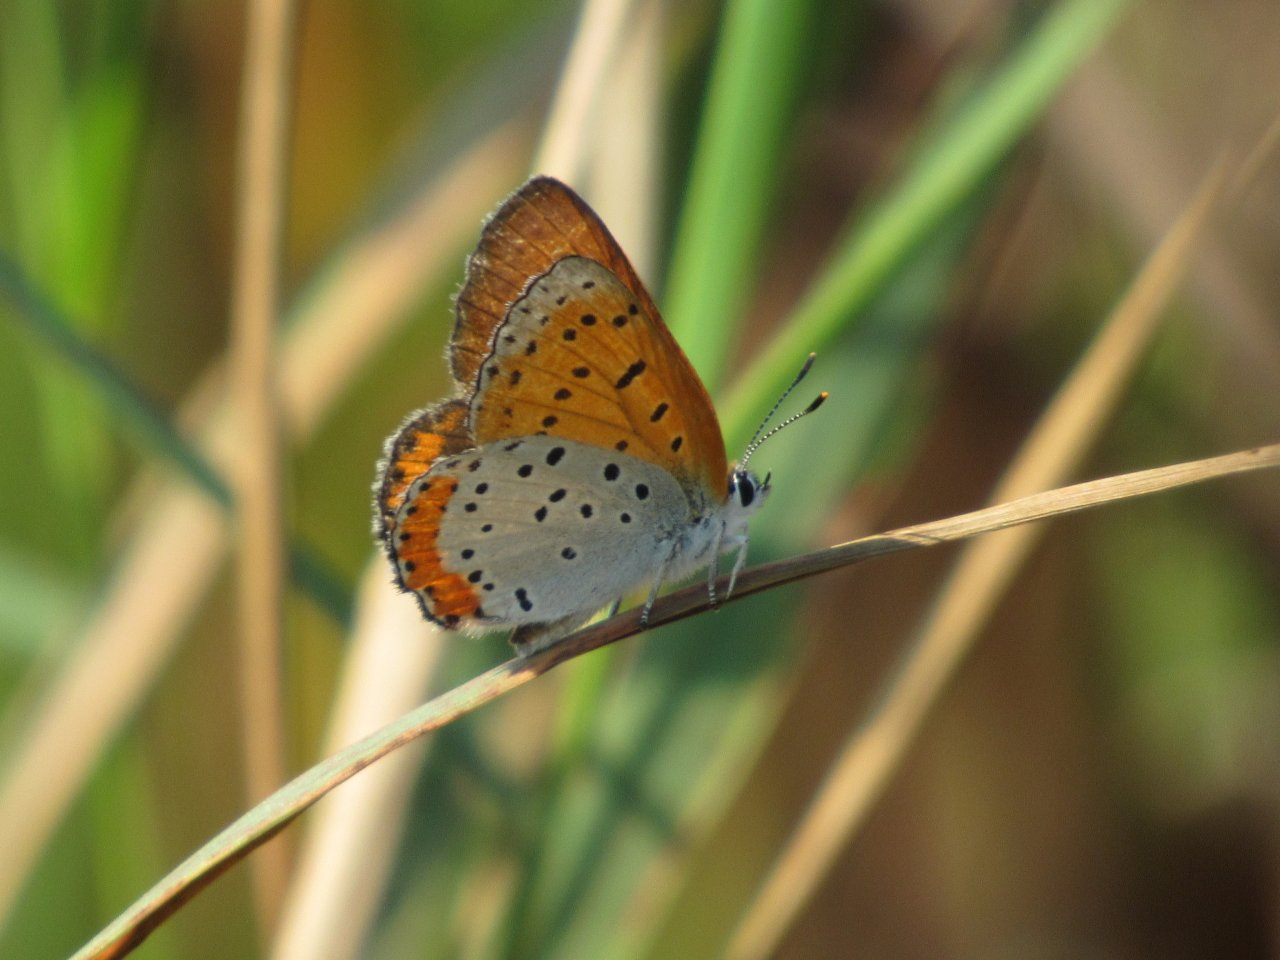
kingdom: Animalia
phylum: Arthropoda
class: Insecta
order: Lepidoptera
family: Sesiidae
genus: Sesia
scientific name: Sesia Lycaena hyllus
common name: Bronze Copper
